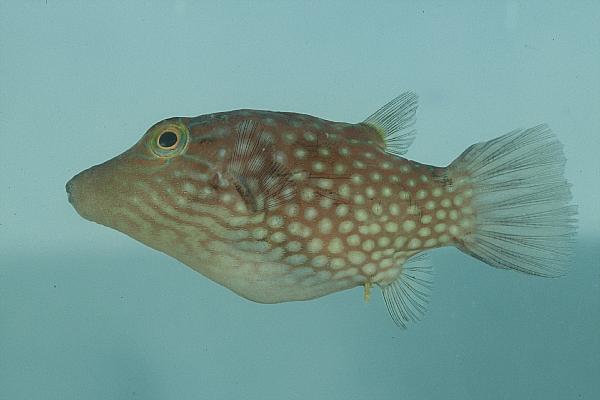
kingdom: Animalia
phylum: Chordata
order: Tetraodontiformes
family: Tetraodontidae
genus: Canthigaster
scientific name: Canthigaster janthinoptera
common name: Honeycomb toby
